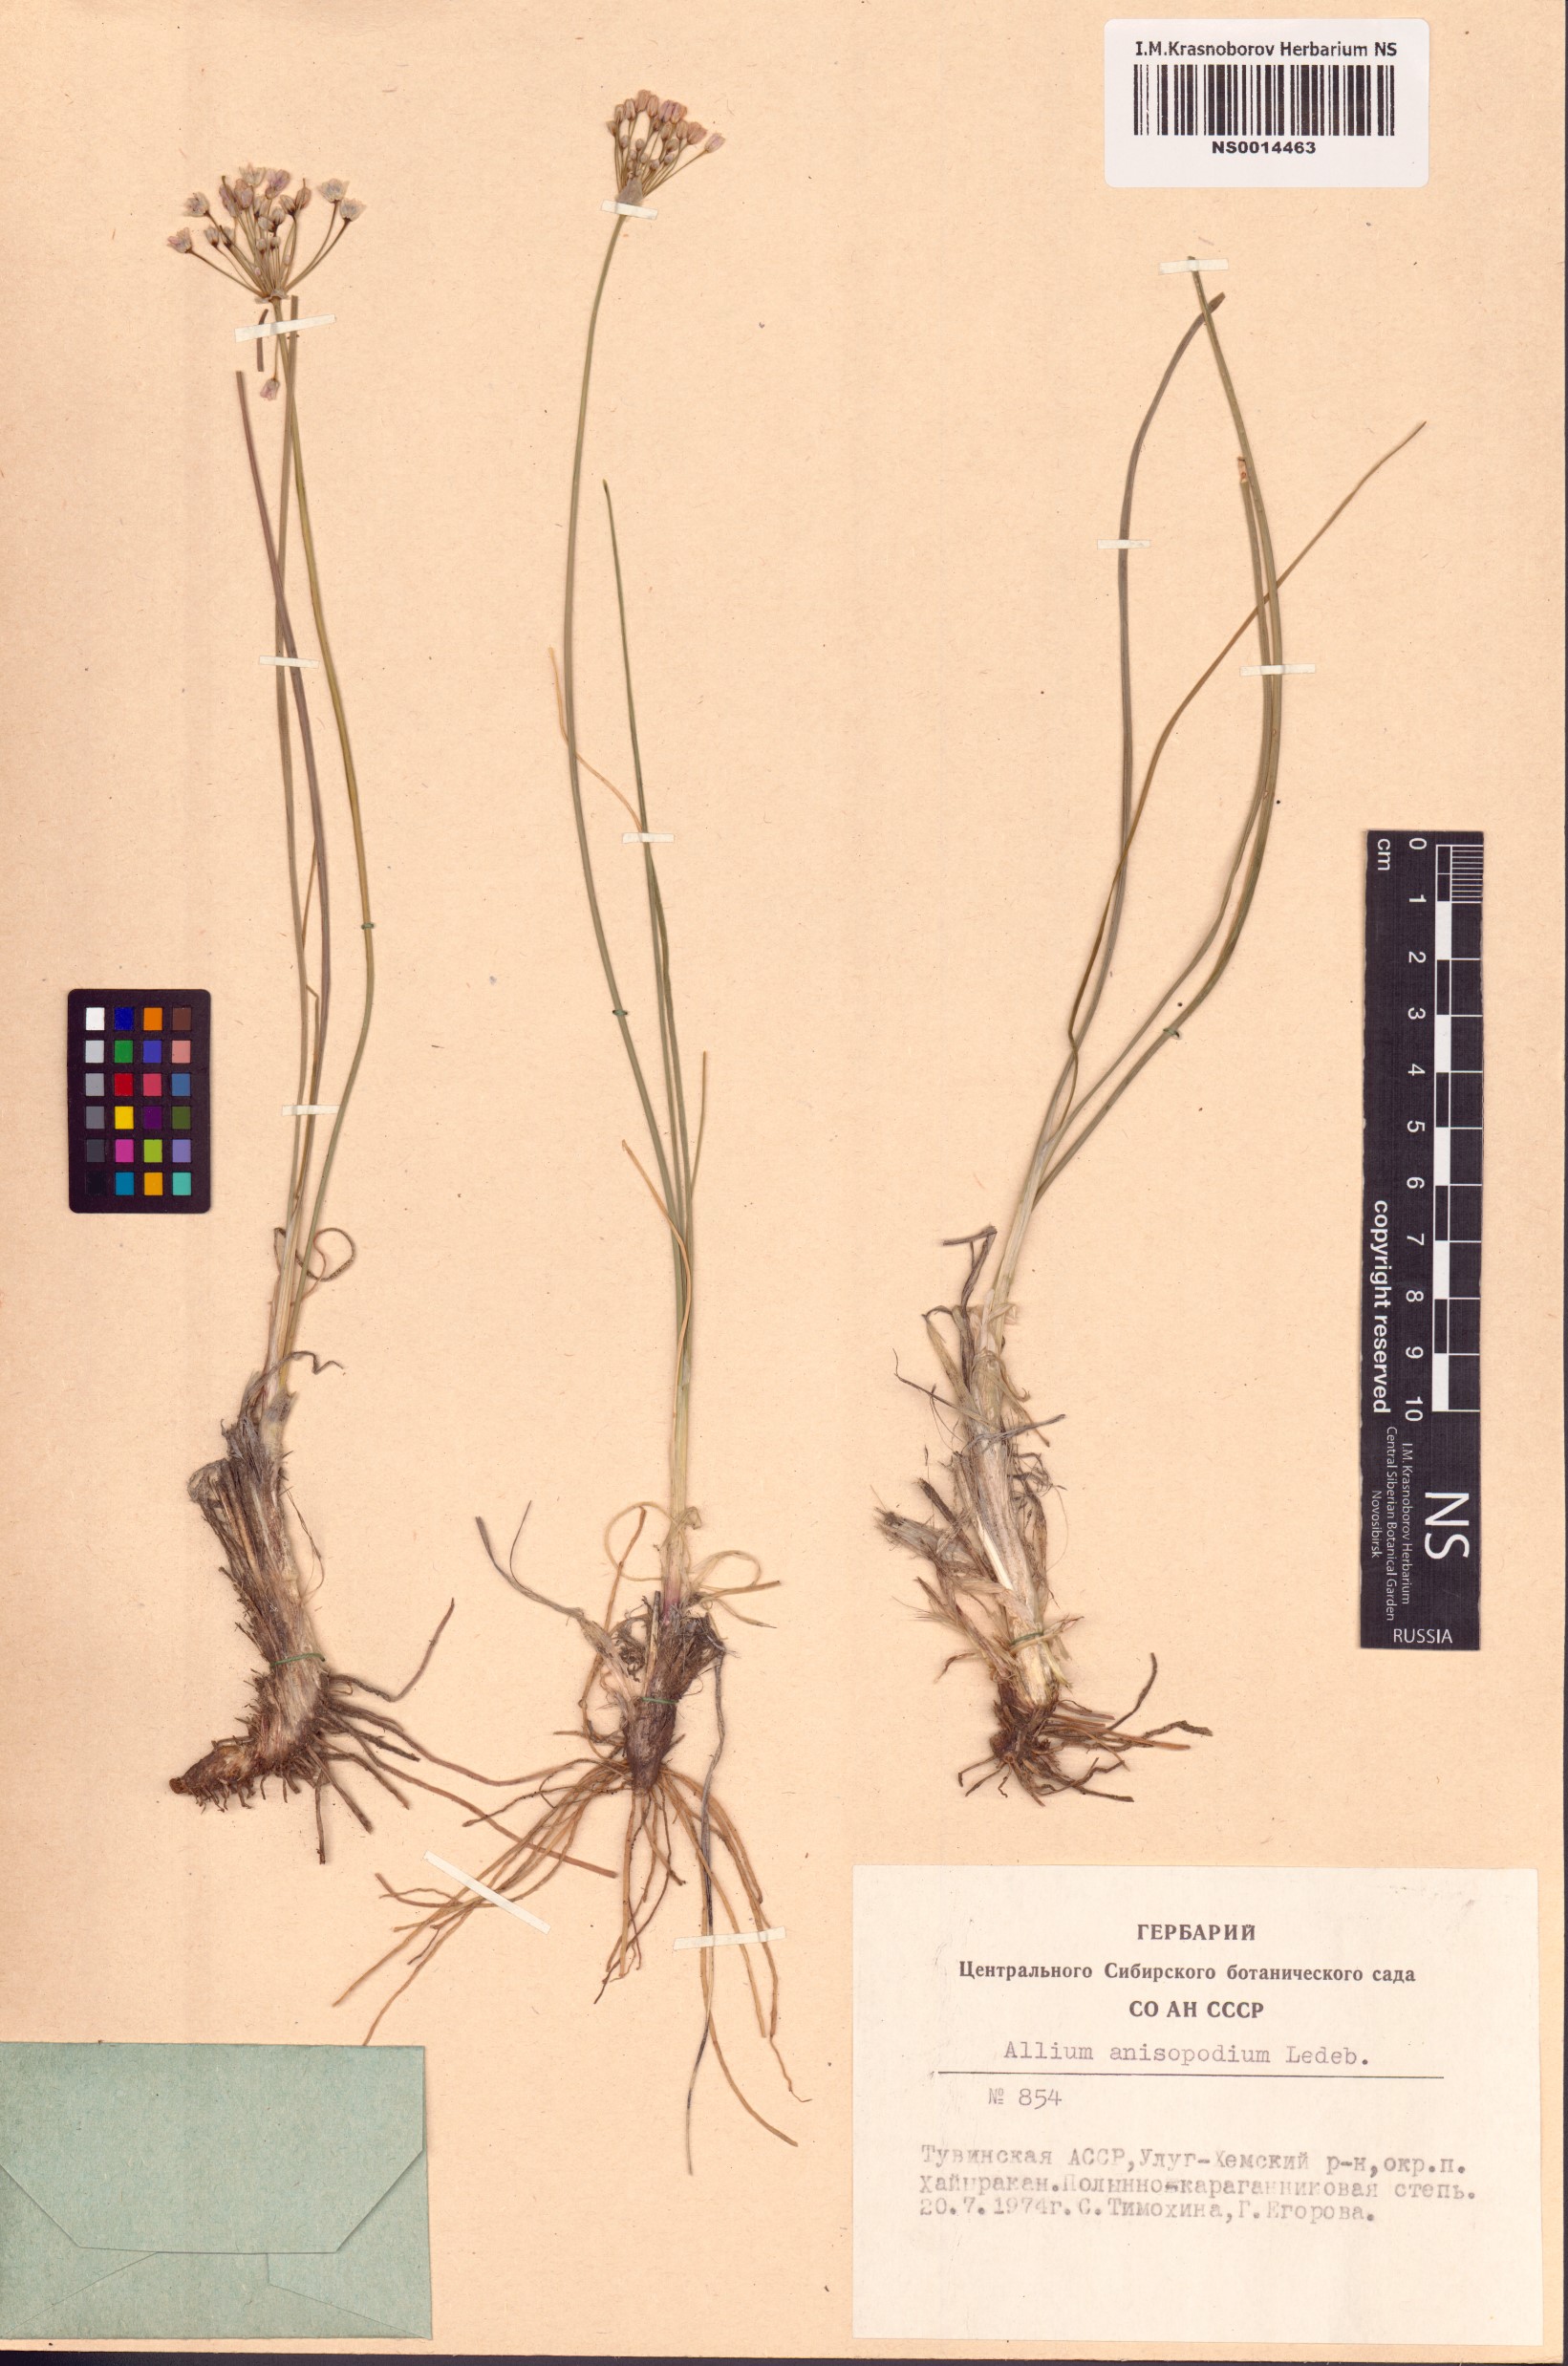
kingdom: Plantae
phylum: Tracheophyta
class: Liliopsida
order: Asparagales
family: Amaryllidaceae
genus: Allium
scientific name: Allium anisopodium
